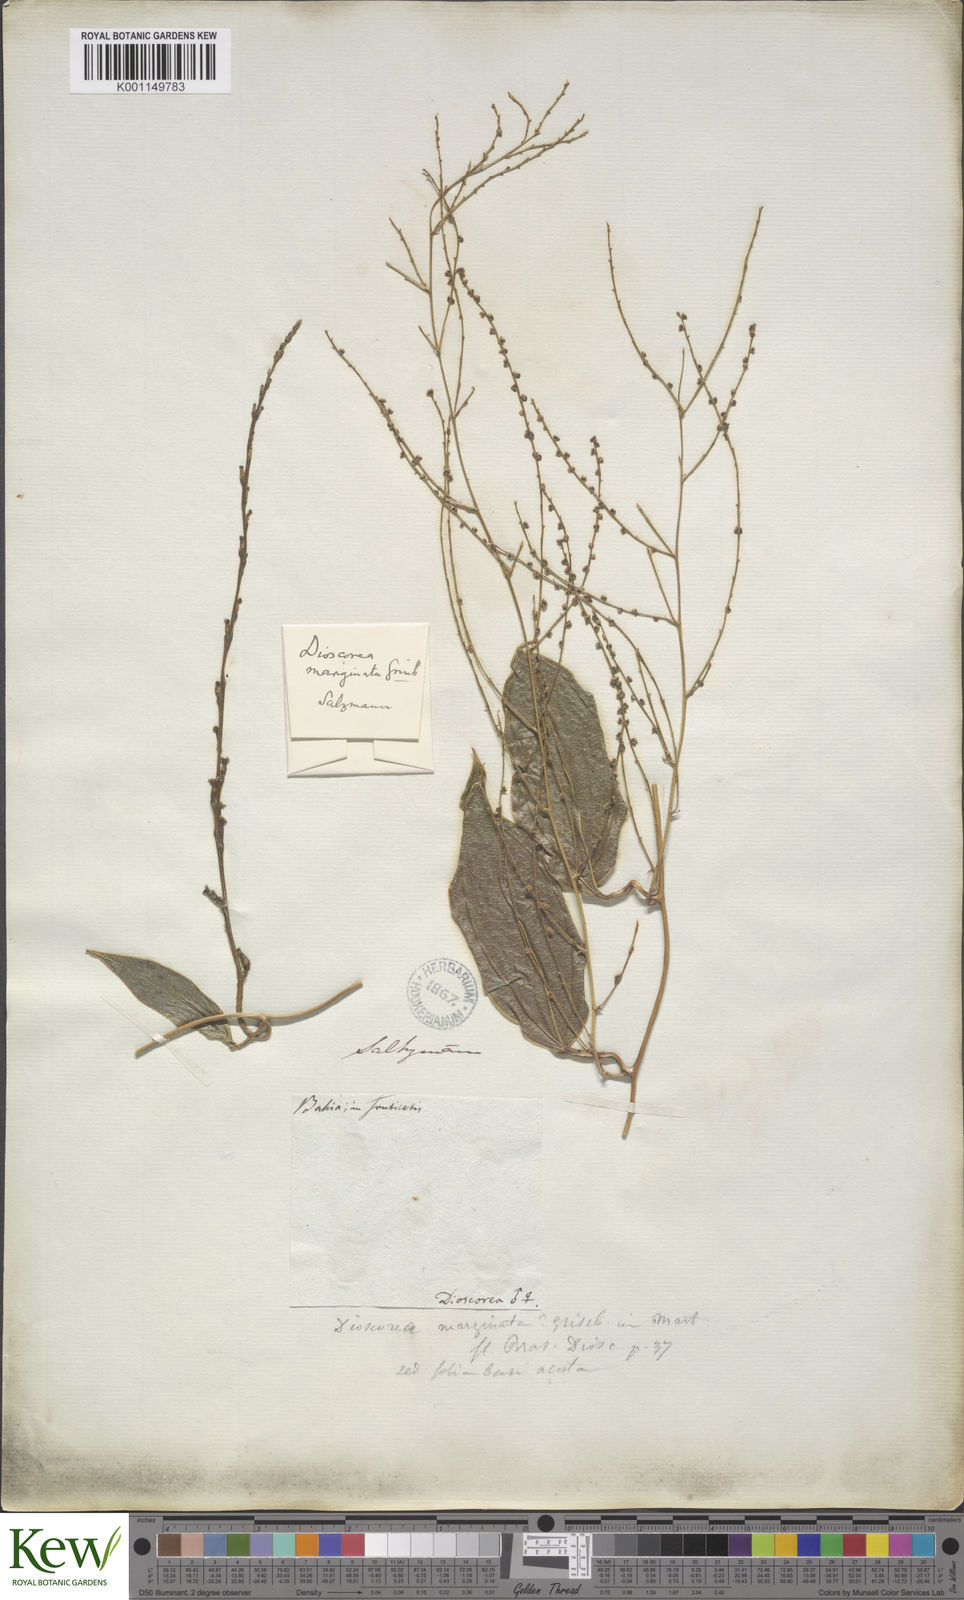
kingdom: Plantae
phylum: Tracheophyta
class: Liliopsida
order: Dioscoreales
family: Dioscoreaceae
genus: Dioscorea
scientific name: Dioscorea marginata
